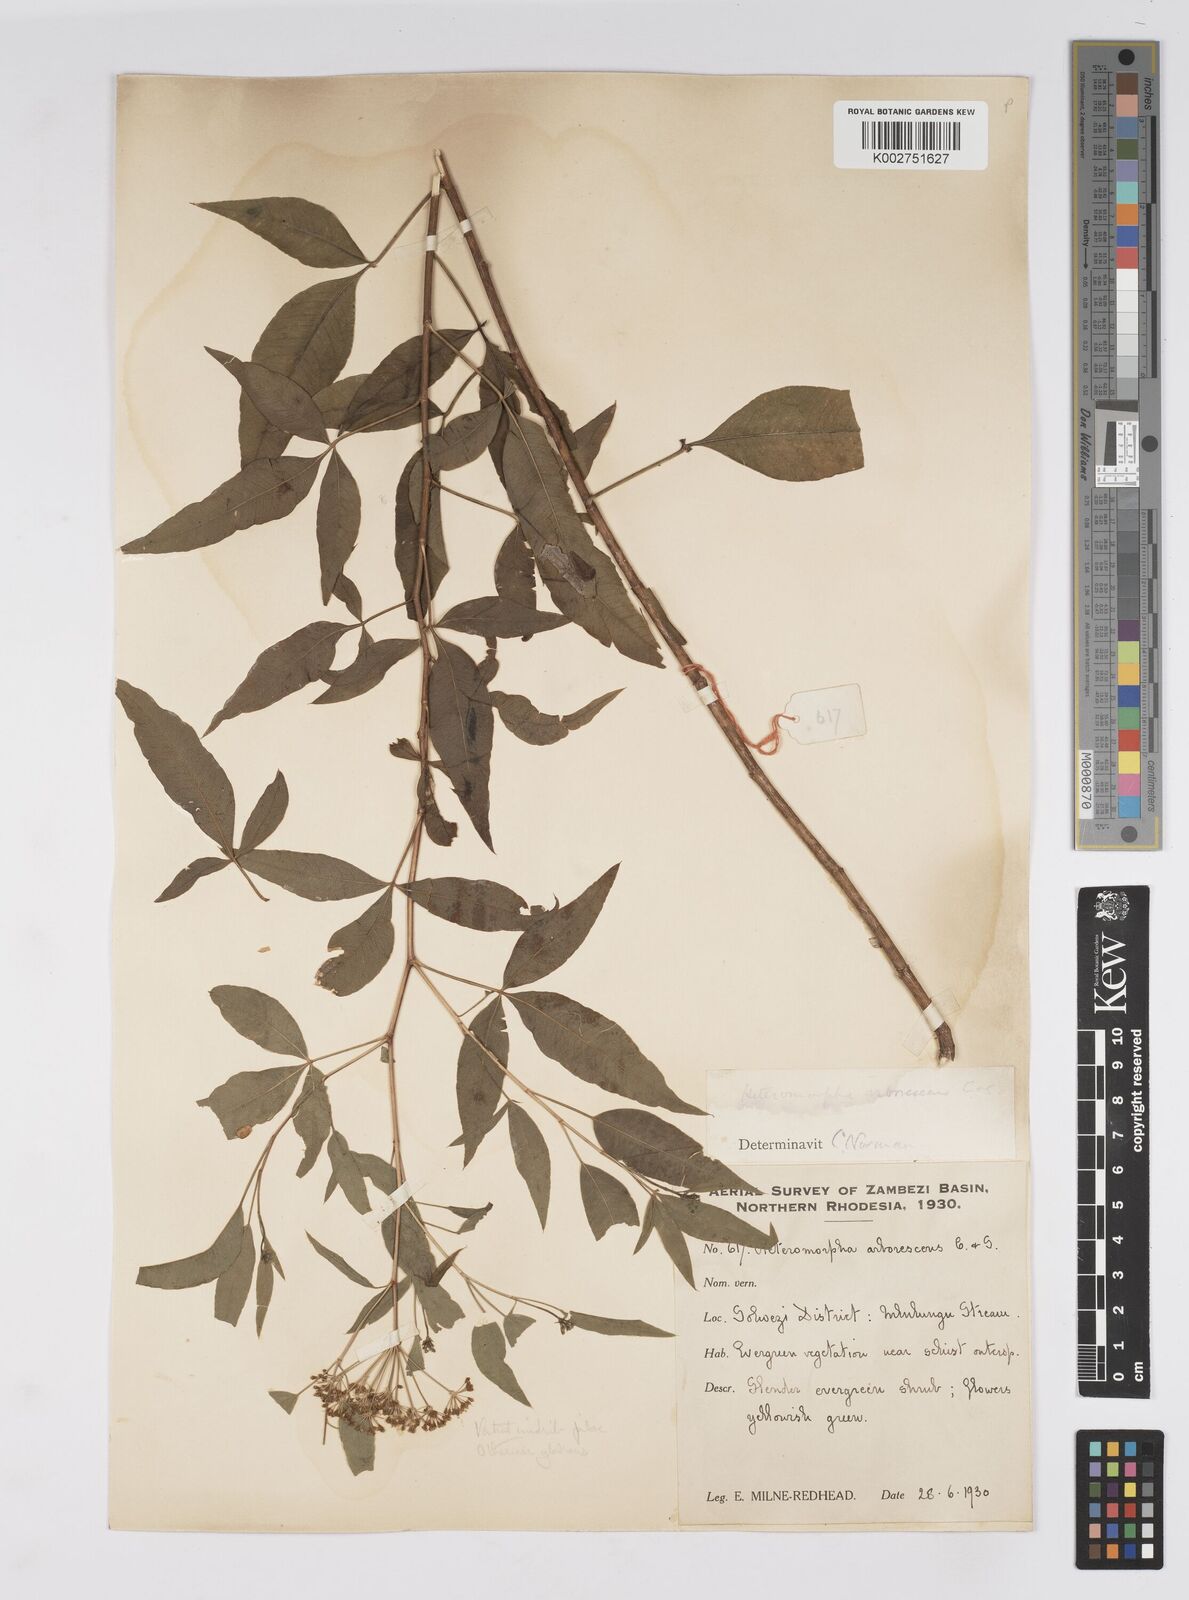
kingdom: Plantae
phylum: Tracheophyta
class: Magnoliopsida
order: Apiales
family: Apiaceae
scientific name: Apiaceae
